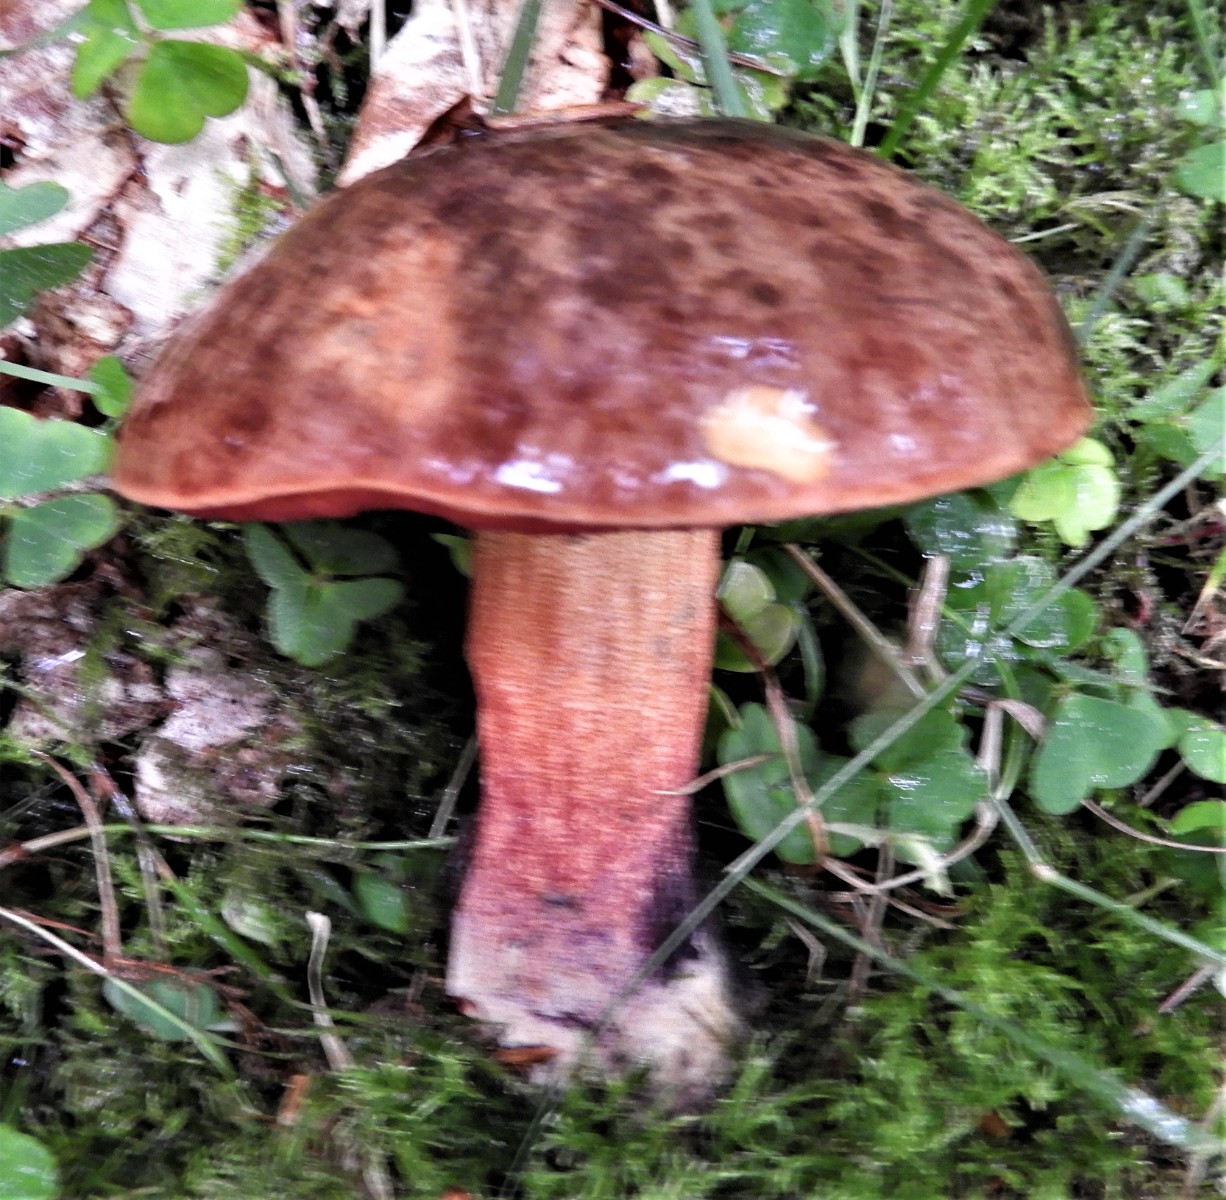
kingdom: Fungi
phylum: Basidiomycota
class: Agaricomycetes
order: Boletales
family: Boletaceae
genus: Neoboletus
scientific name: Neoboletus erythropus
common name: punktstokket indigorørhat
